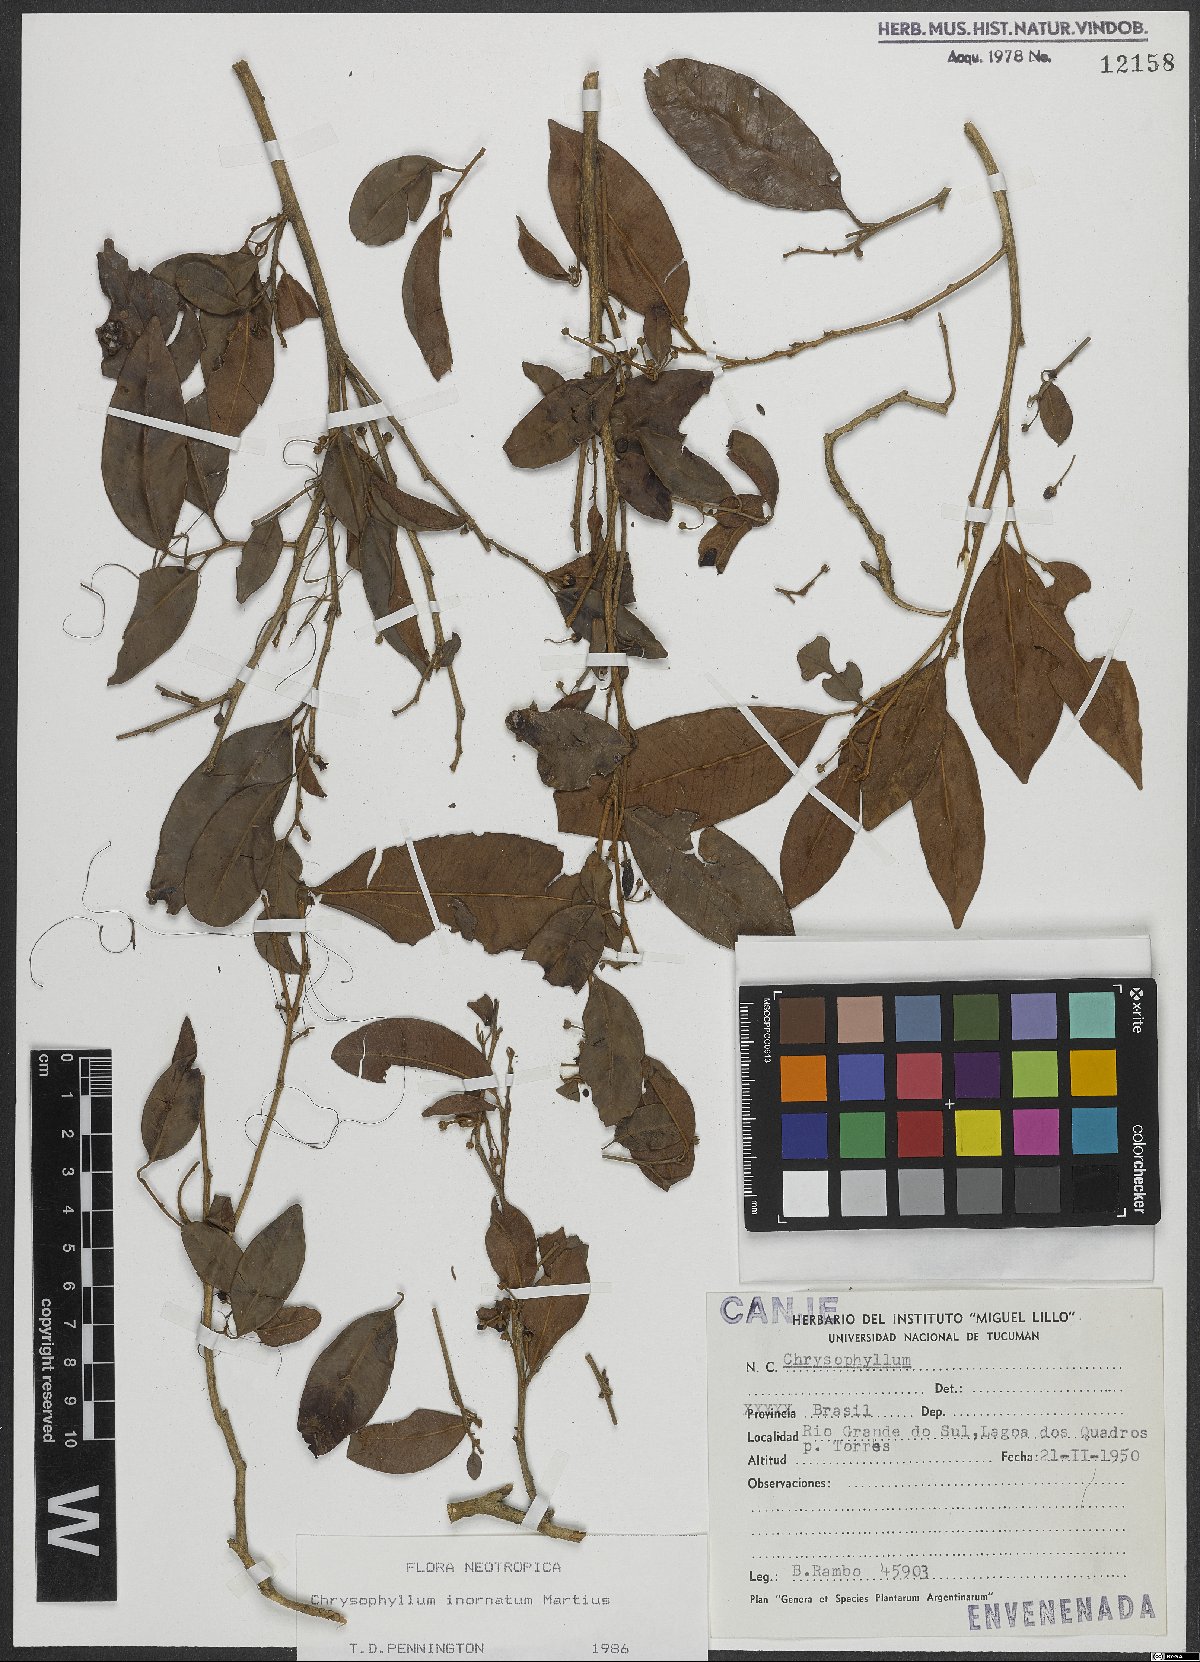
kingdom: Plantae
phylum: Tracheophyta
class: Magnoliopsida
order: Ericales
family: Sapotaceae
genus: Chrysophyllum
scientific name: Chrysophyllum inornatum
